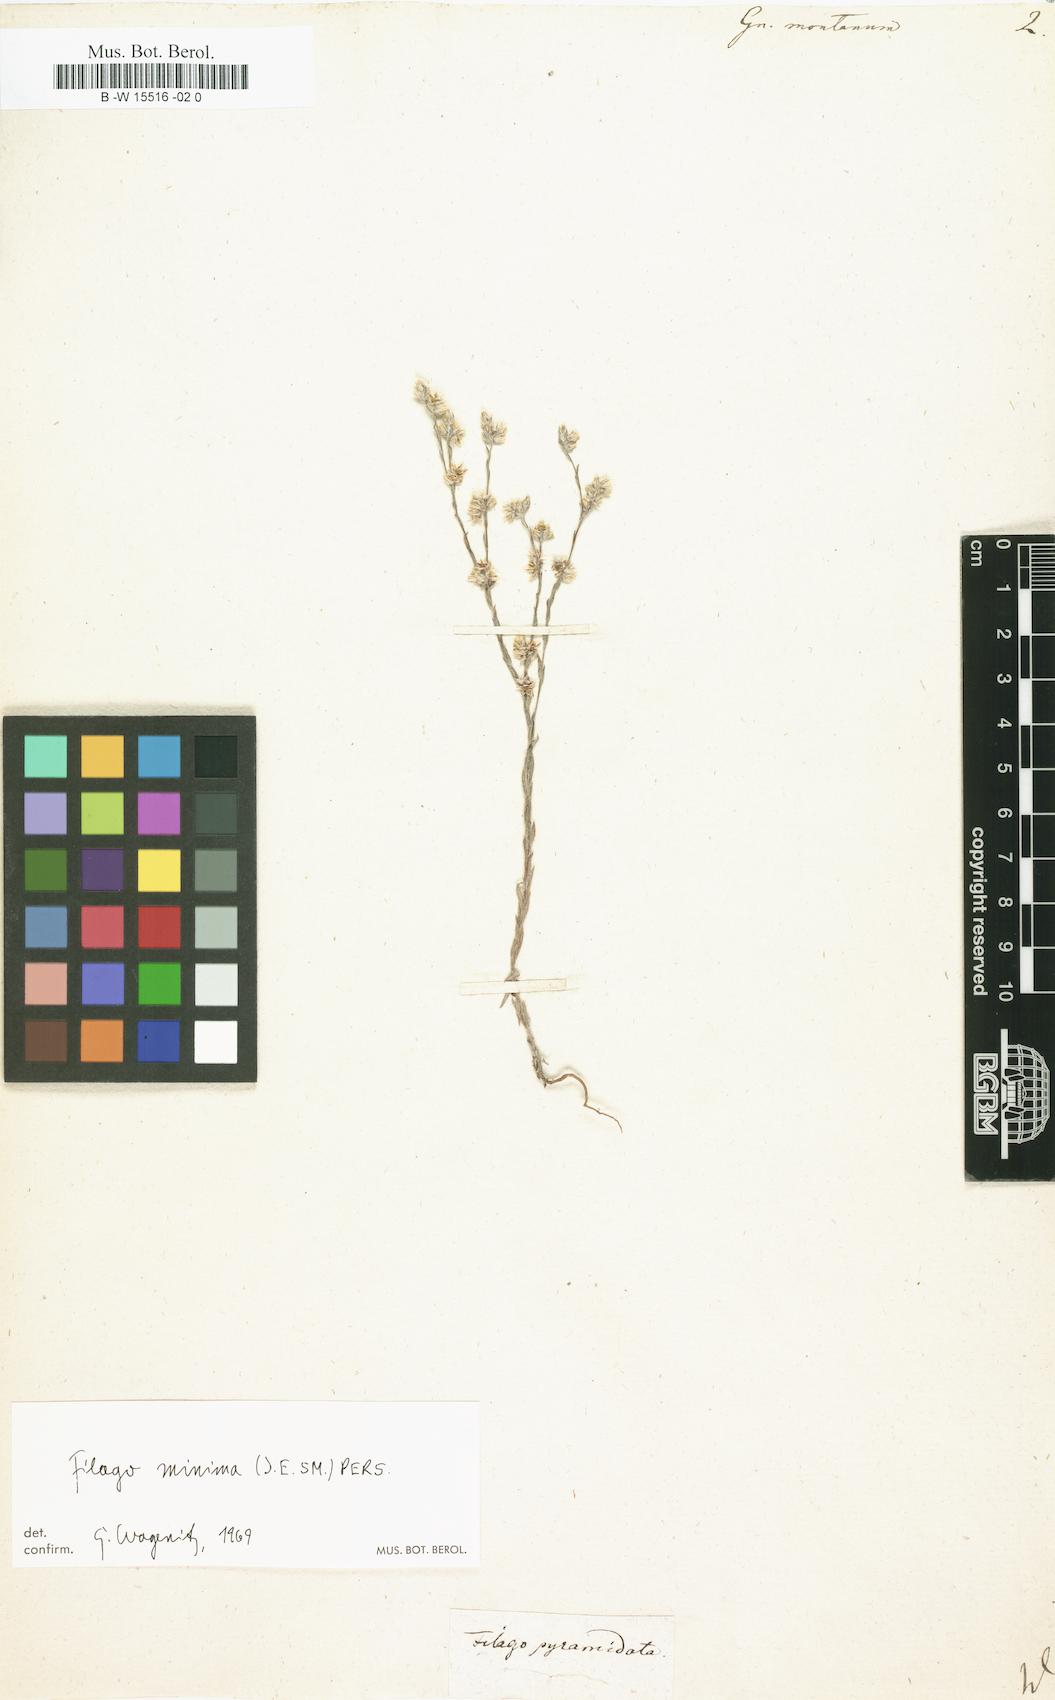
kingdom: Plantae
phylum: Tracheophyta
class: Magnoliopsida
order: Asterales
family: Asteraceae
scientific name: Asteraceae
